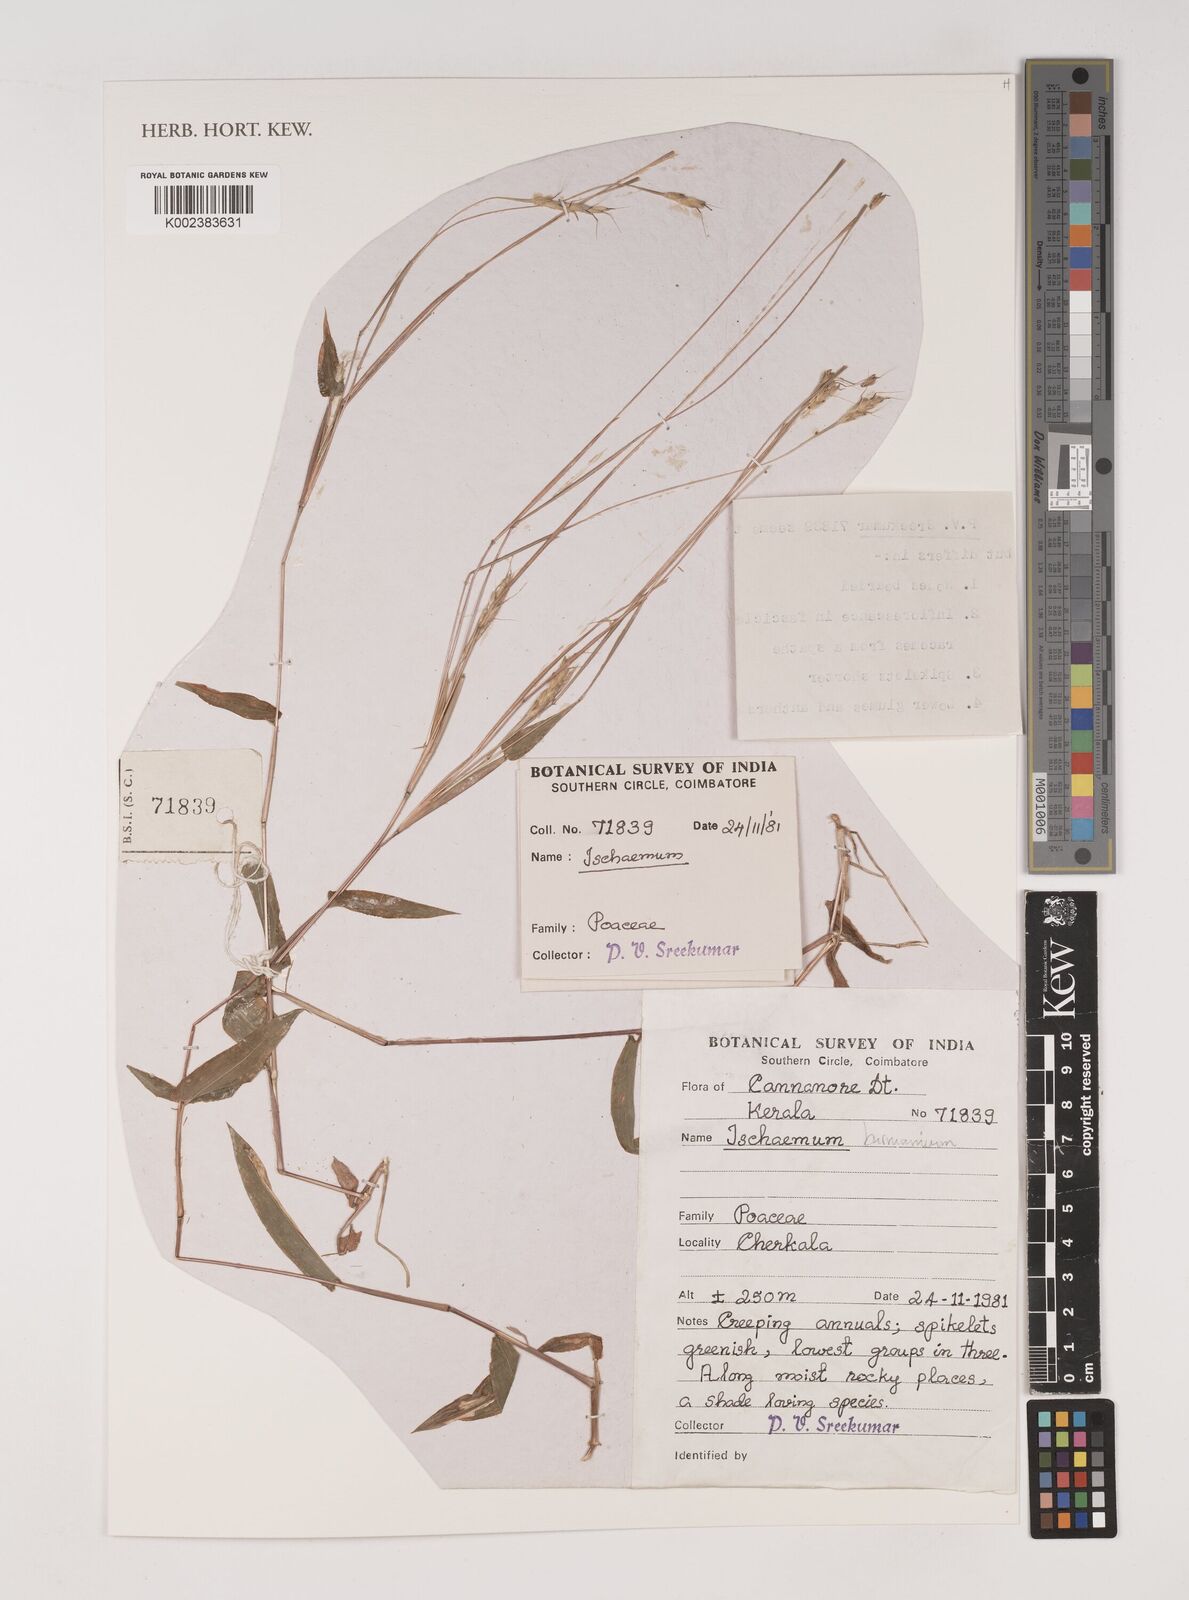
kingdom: Plantae
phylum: Tracheophyta
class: Liliopsida
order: Poales
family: Poaceae
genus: Ischaemum
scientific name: Ischaemum burmanicum
